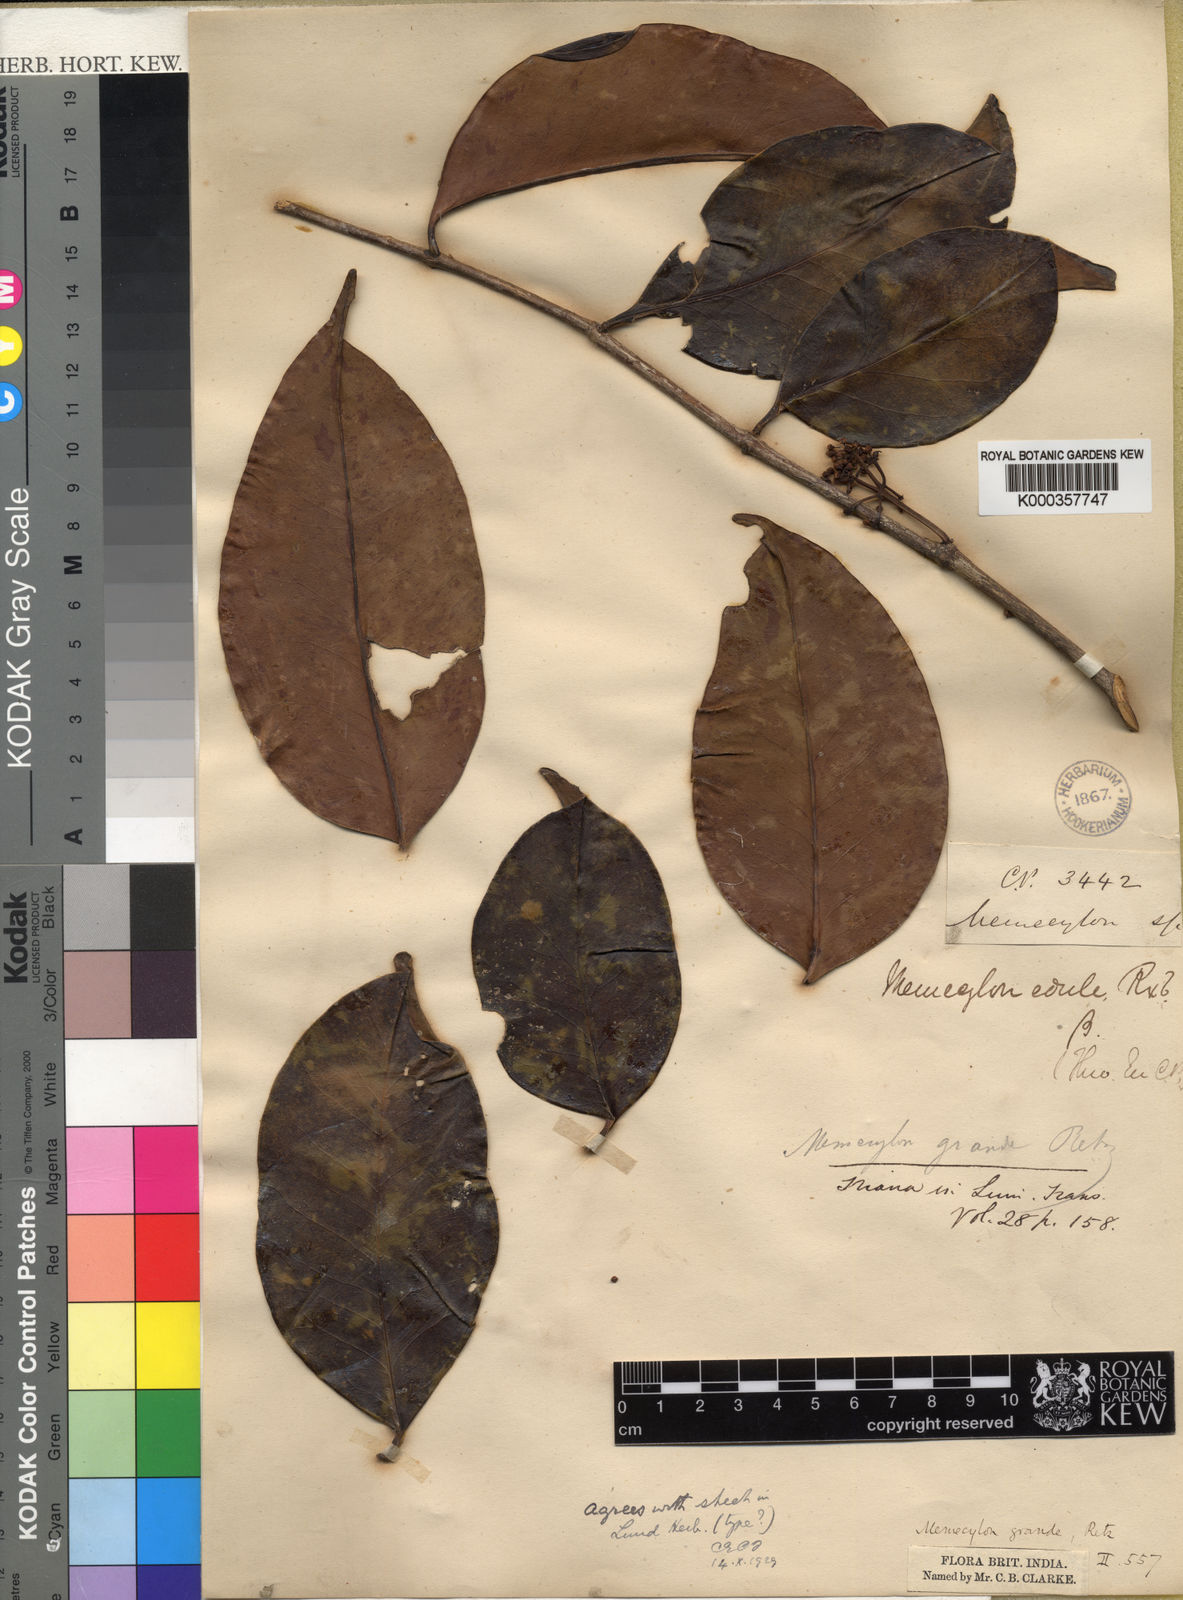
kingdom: Plantae
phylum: Tracheophyta
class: Magnoliopsida
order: Myrtales
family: Melastomataceae
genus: Memecylon
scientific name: Memecylon grande
